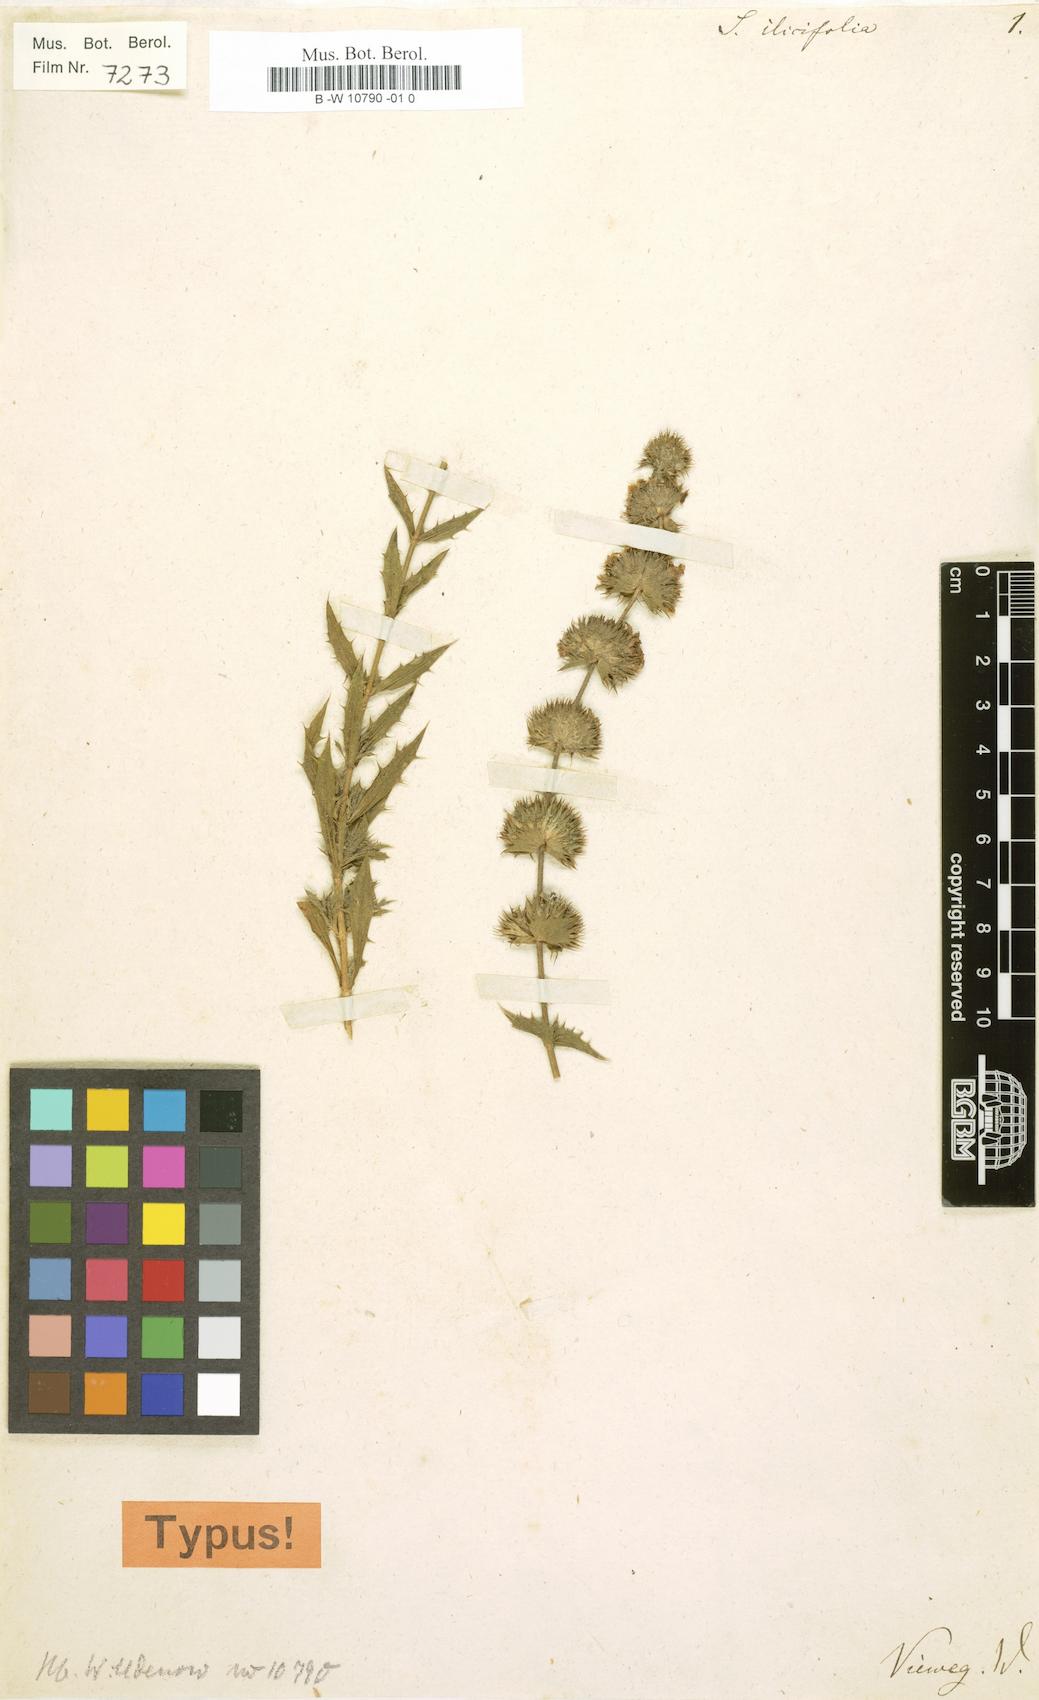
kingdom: Plantae
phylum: Tracheophyta
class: Magnoliopsida
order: Lamiales
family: Lamiaceae
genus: Sideritis
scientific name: Sideritis ilicifolia
